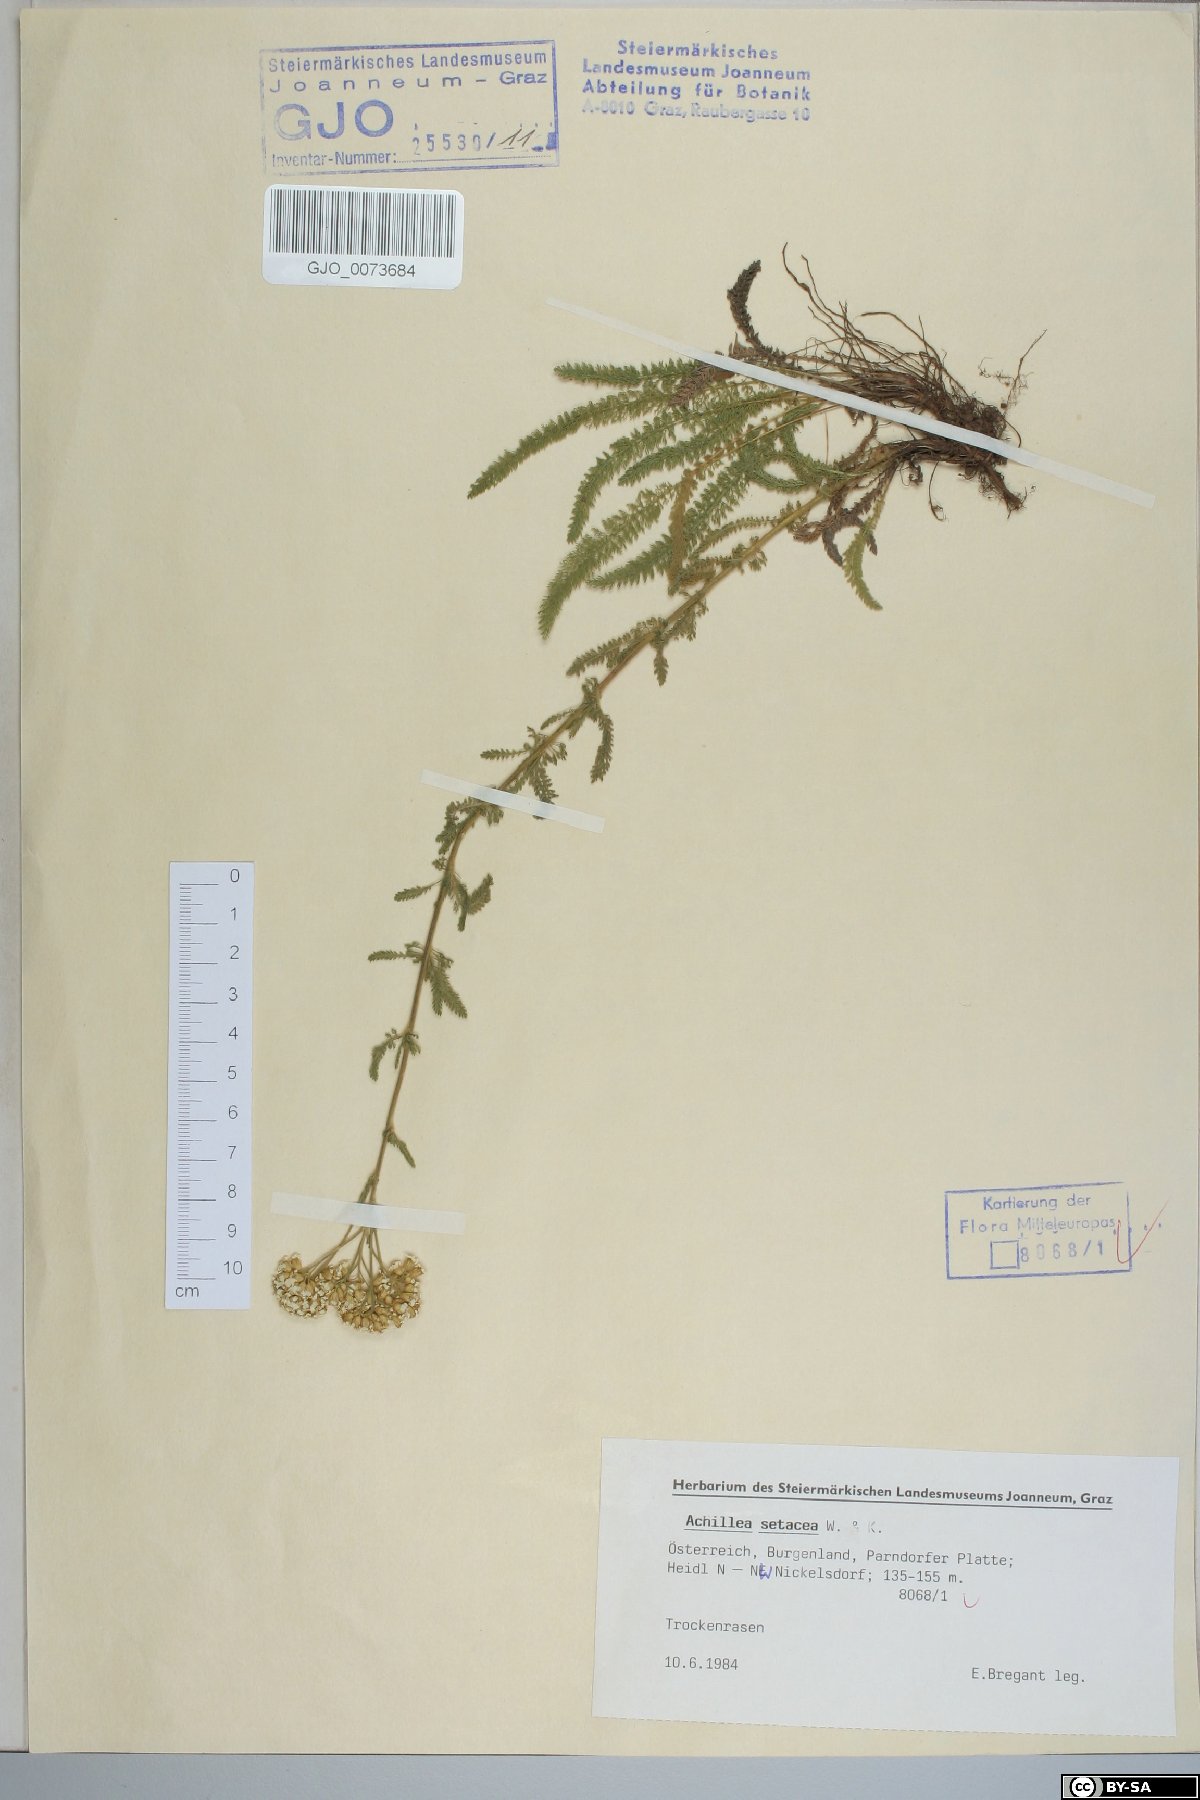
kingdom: Plantae
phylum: Tracheophyta
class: Magnoliopsida
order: Asterales
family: Asteraceae
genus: Achillea
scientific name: Achillea setacea
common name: Bristly yarrow
